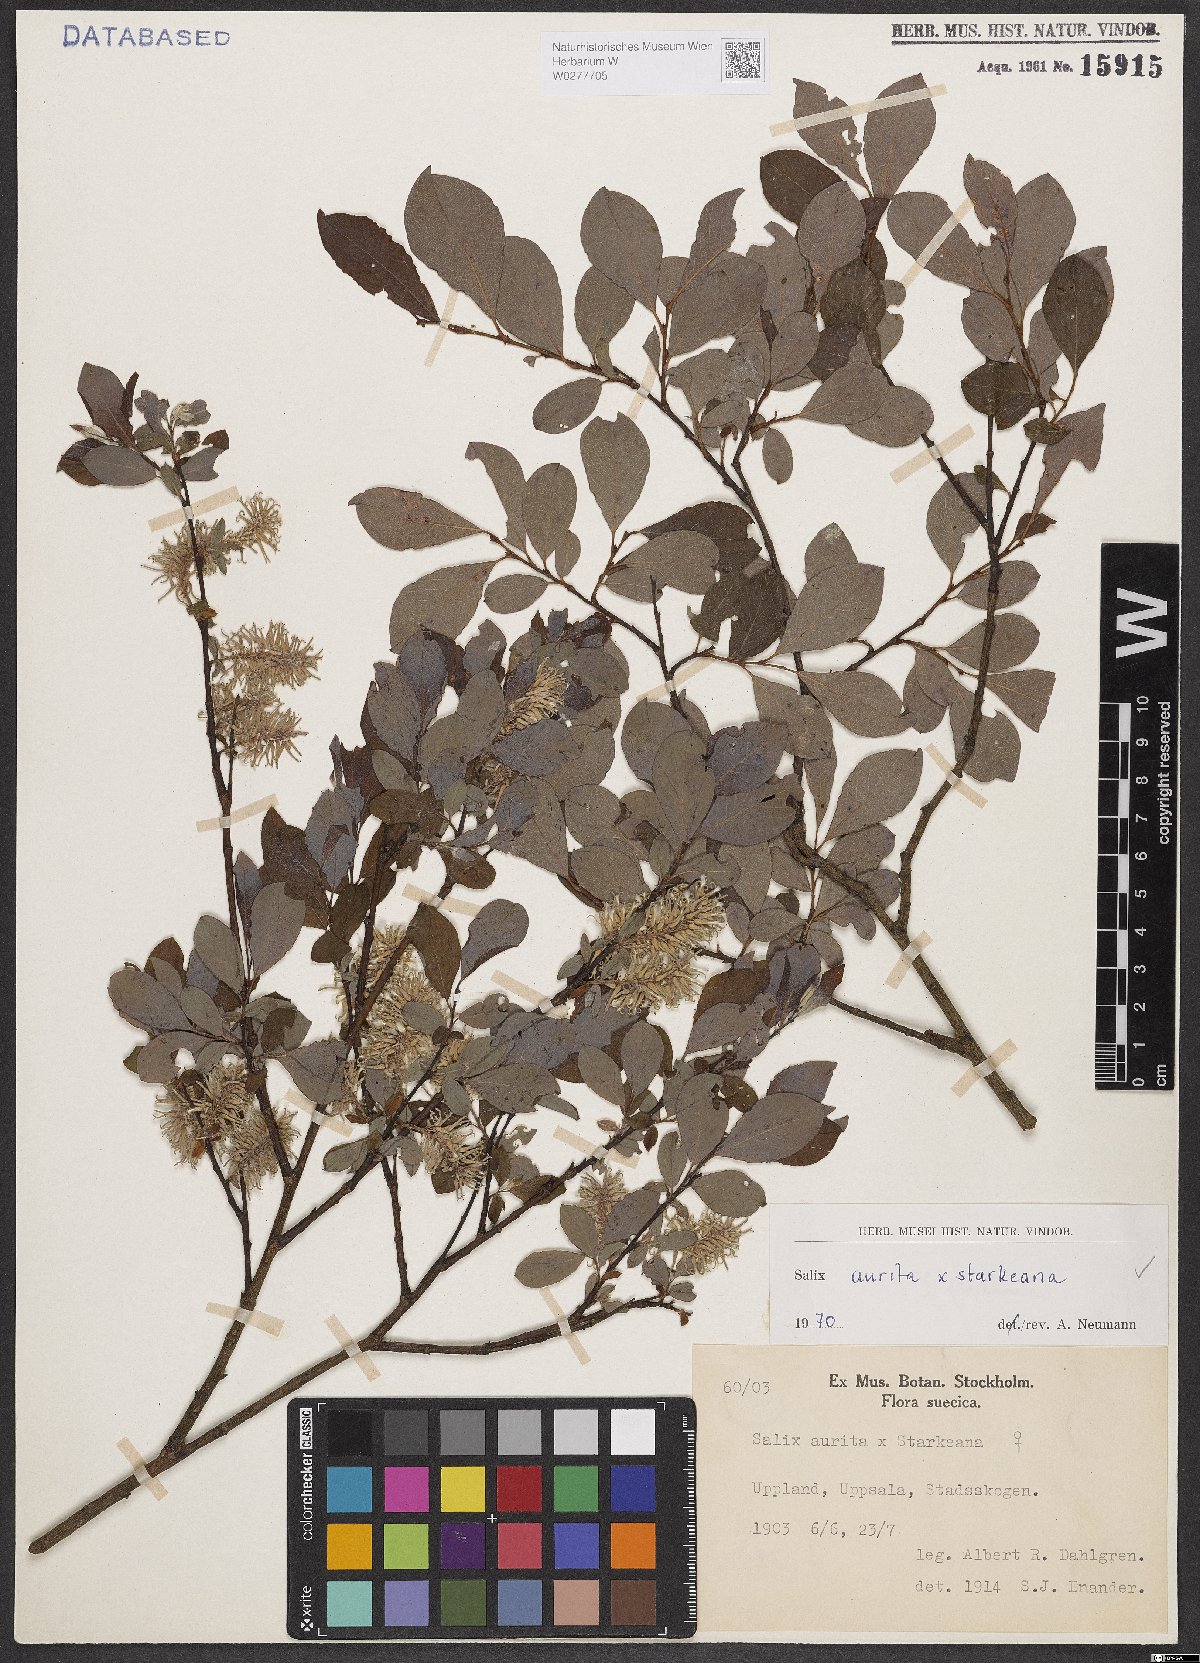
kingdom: Plantae
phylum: Tracheophyta
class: Magnoliopsida
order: Malpighiales
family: Salicaceae
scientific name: Salicaceae
